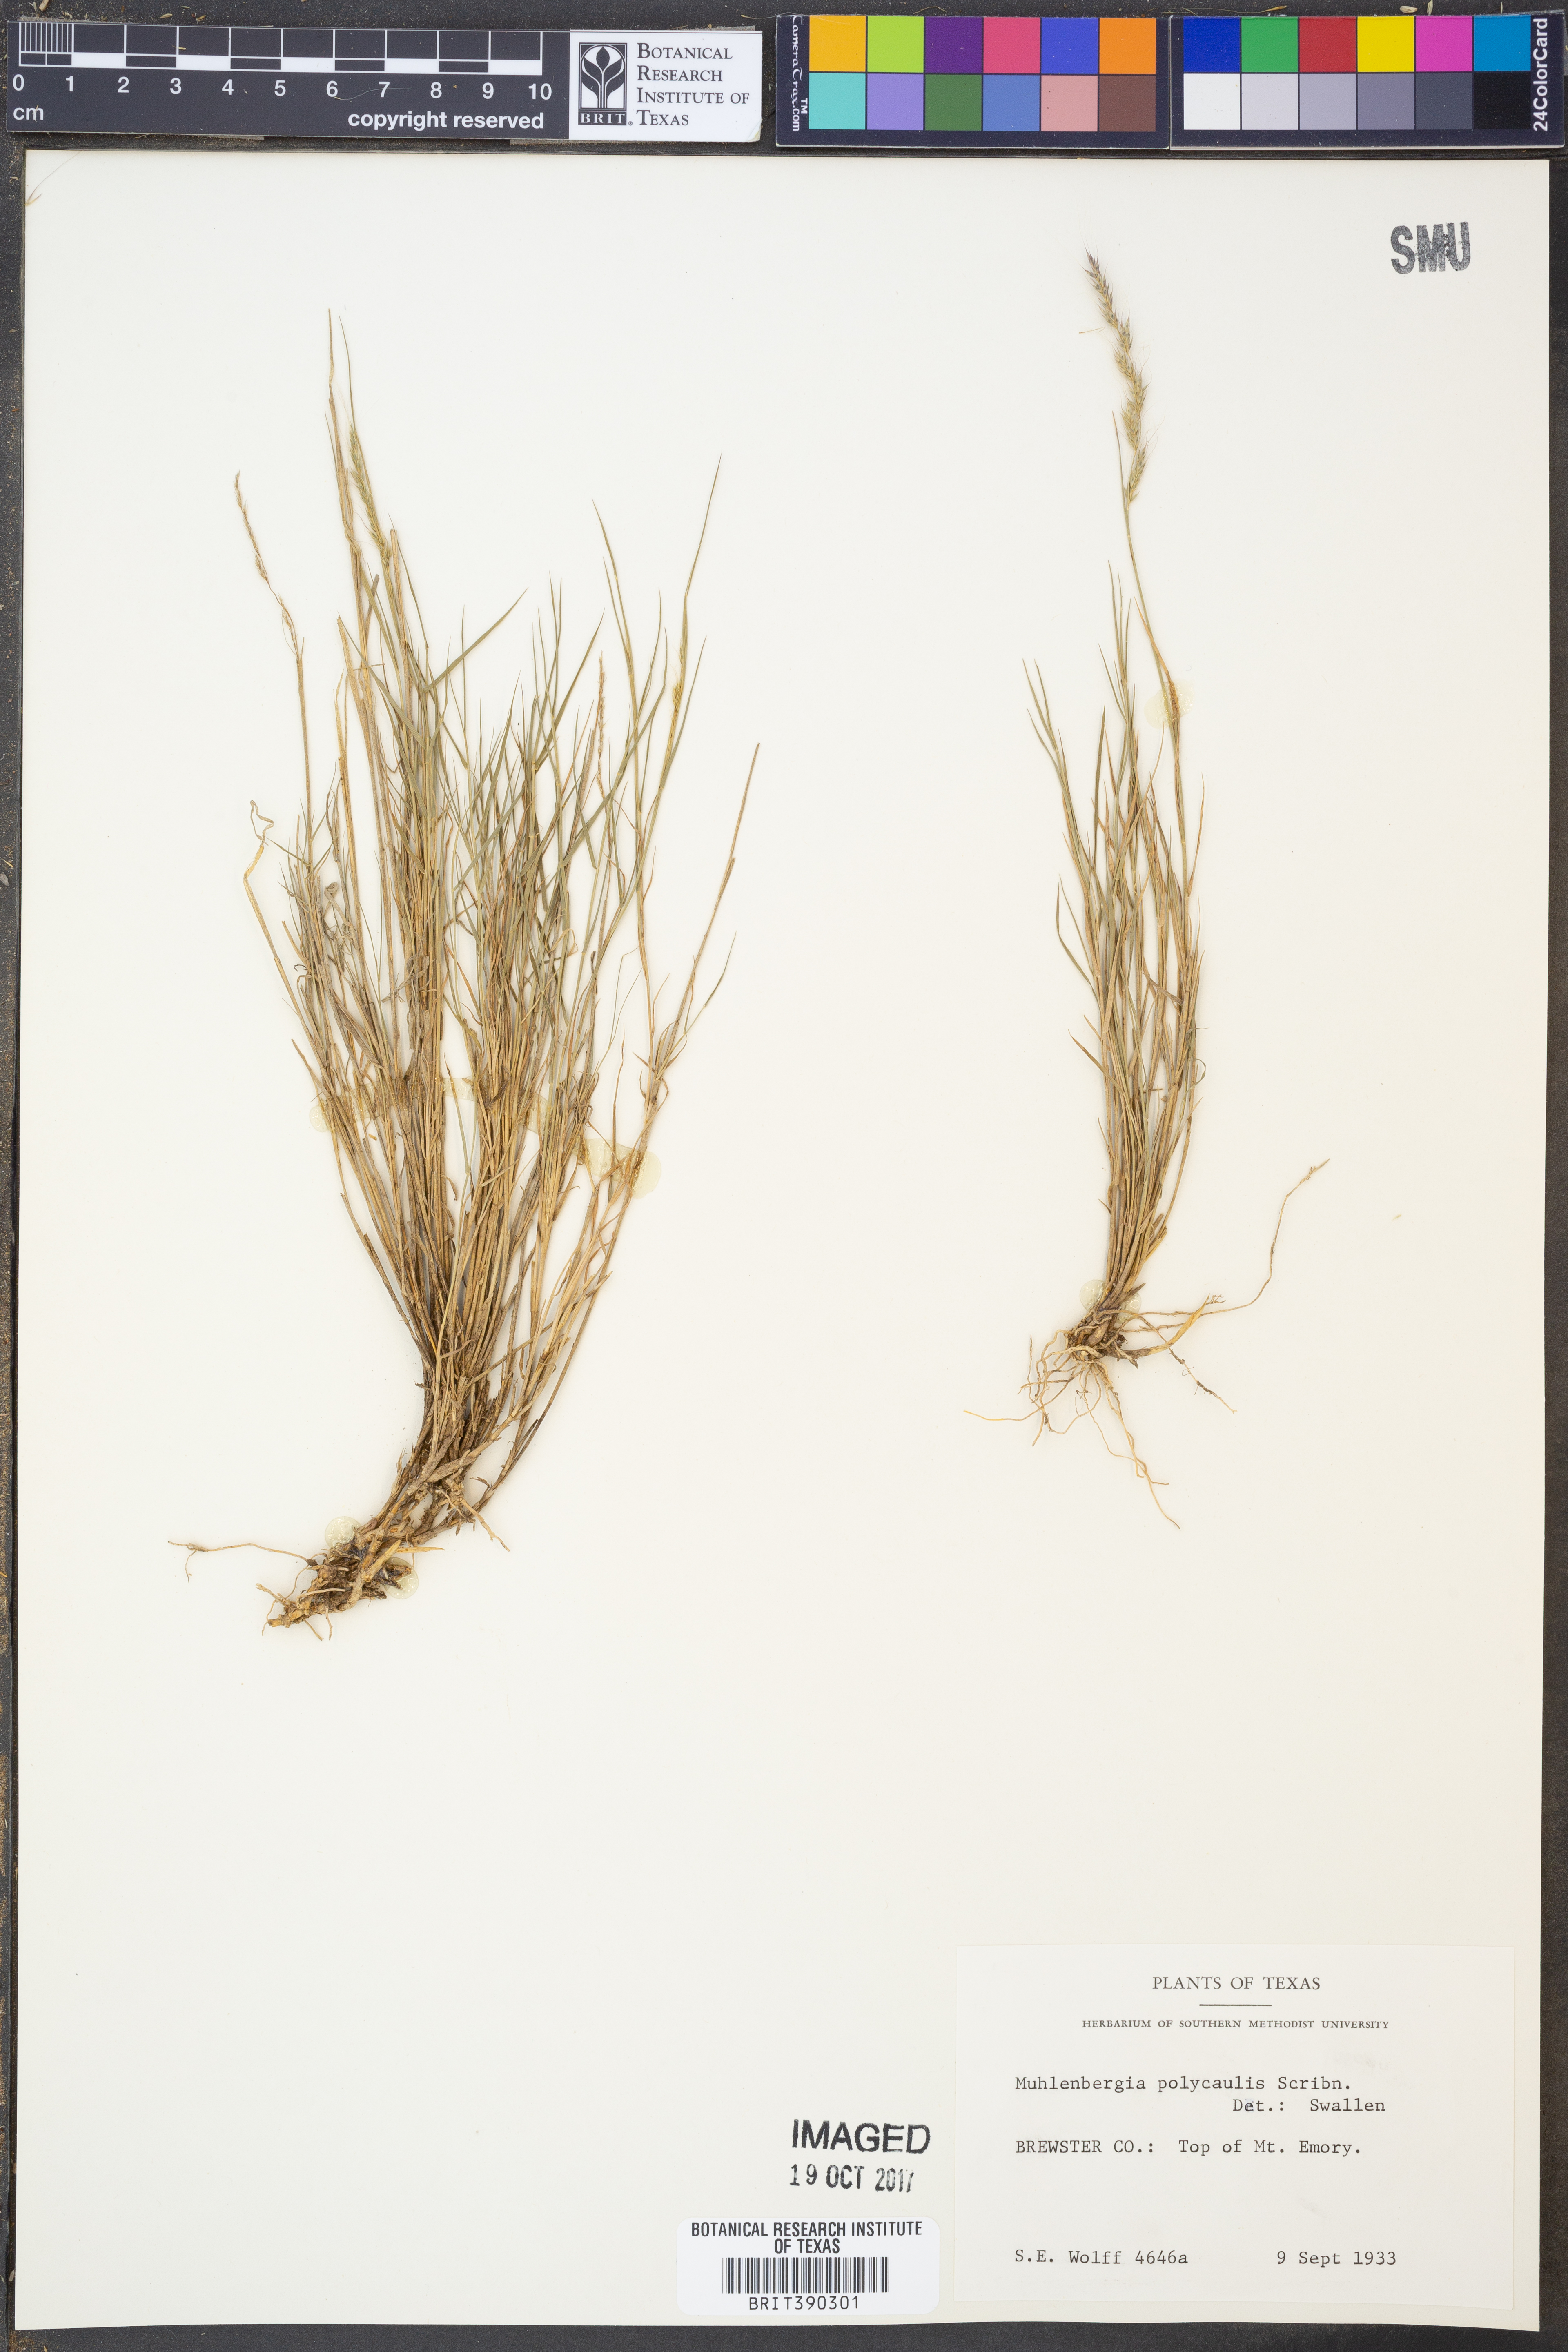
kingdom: Plantae
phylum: Tracheophyta
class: Liliopsida
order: Poales
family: Poaceae
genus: Muhlenbergia
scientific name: Muhlenbergia polycaulis
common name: Cliff muhly
